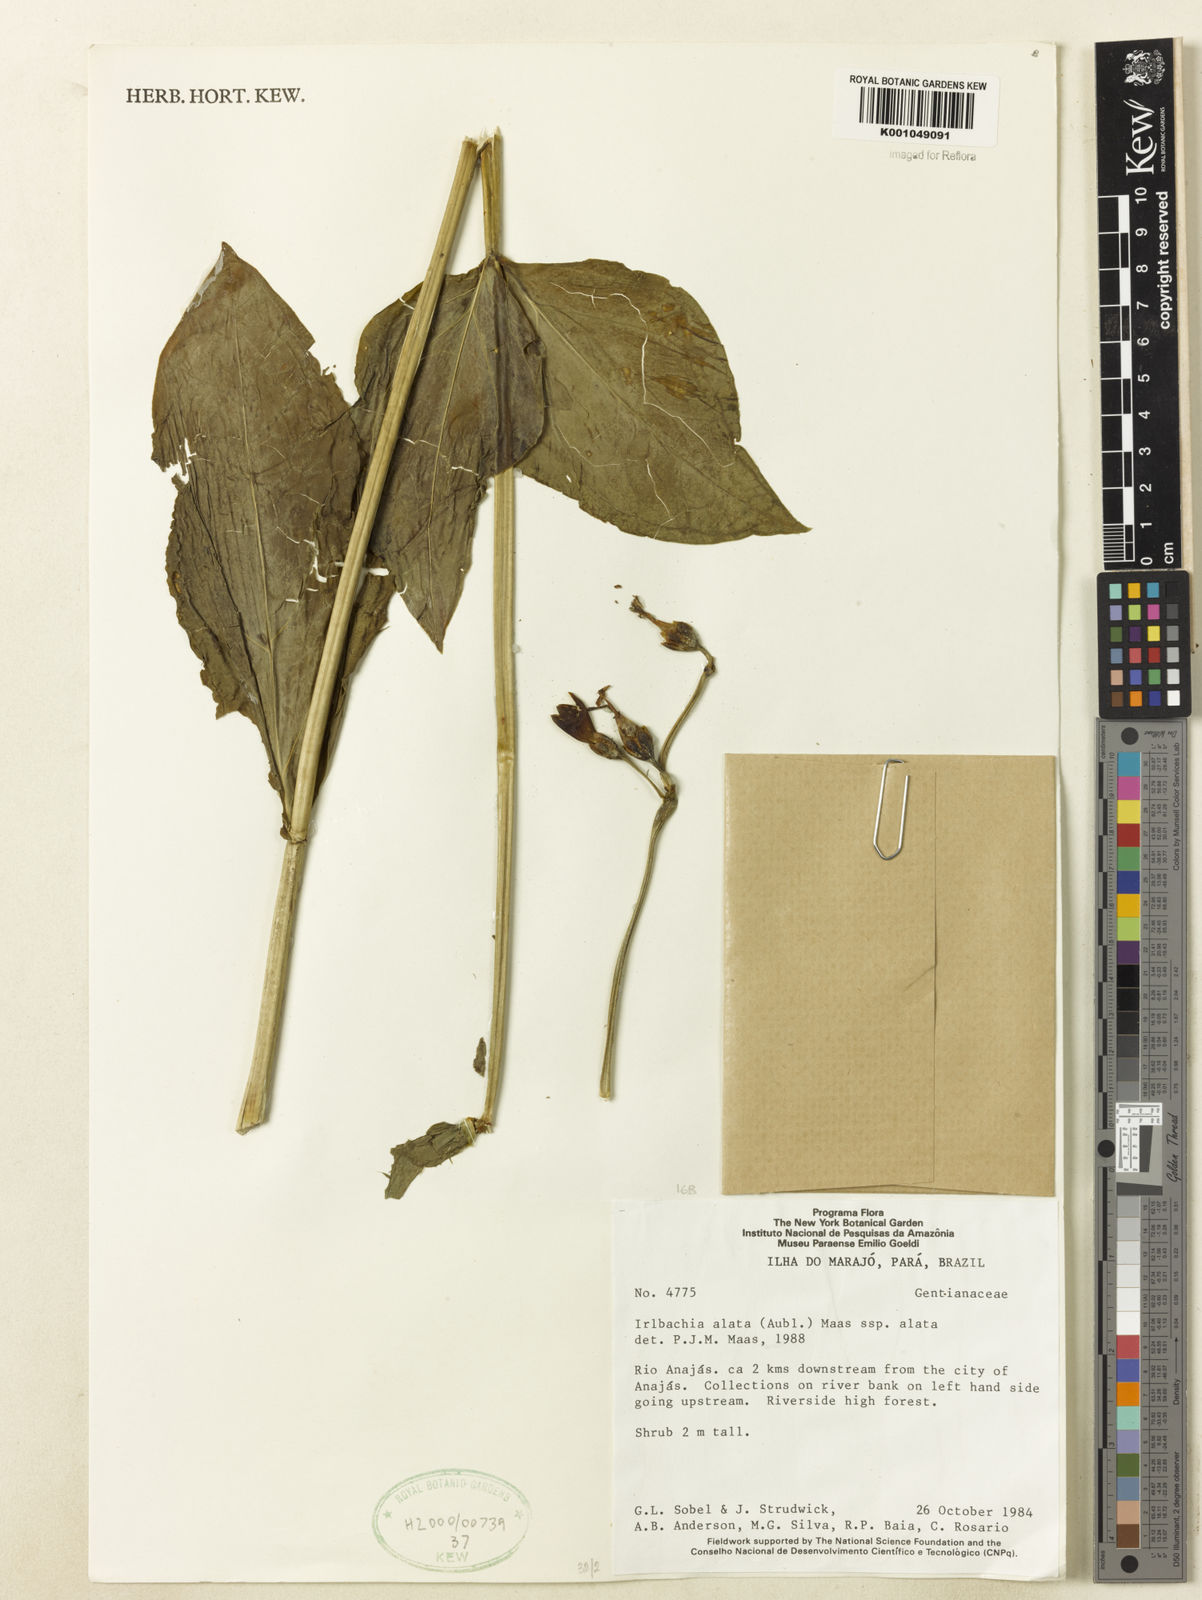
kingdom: Plantae
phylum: Tracheophyta
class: Magnoliopsida
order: Gentianales
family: Gentianaceae
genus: Chelonanthus
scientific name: Chelonanthus alatus
